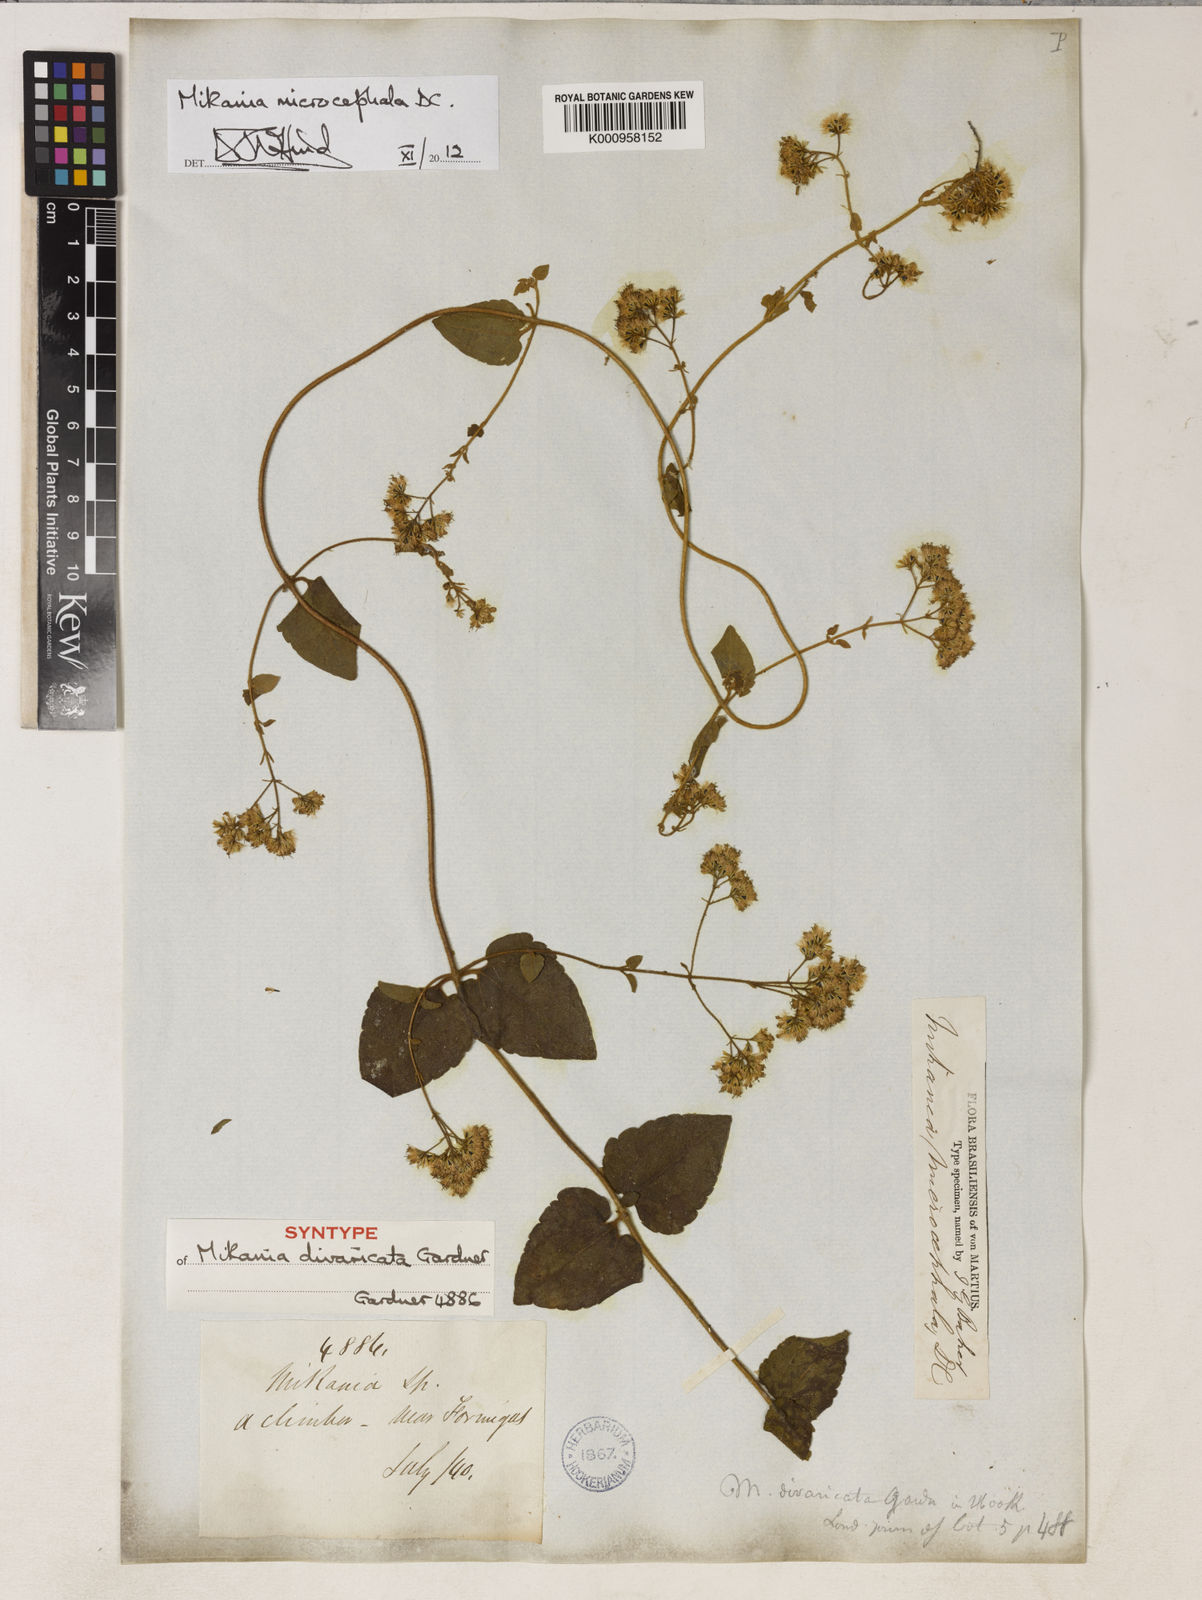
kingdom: Plantae
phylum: Tracheophyta
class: Magnoliopsida
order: Asterales
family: Asteraceae
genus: Mikania
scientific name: Mikania microcephala
